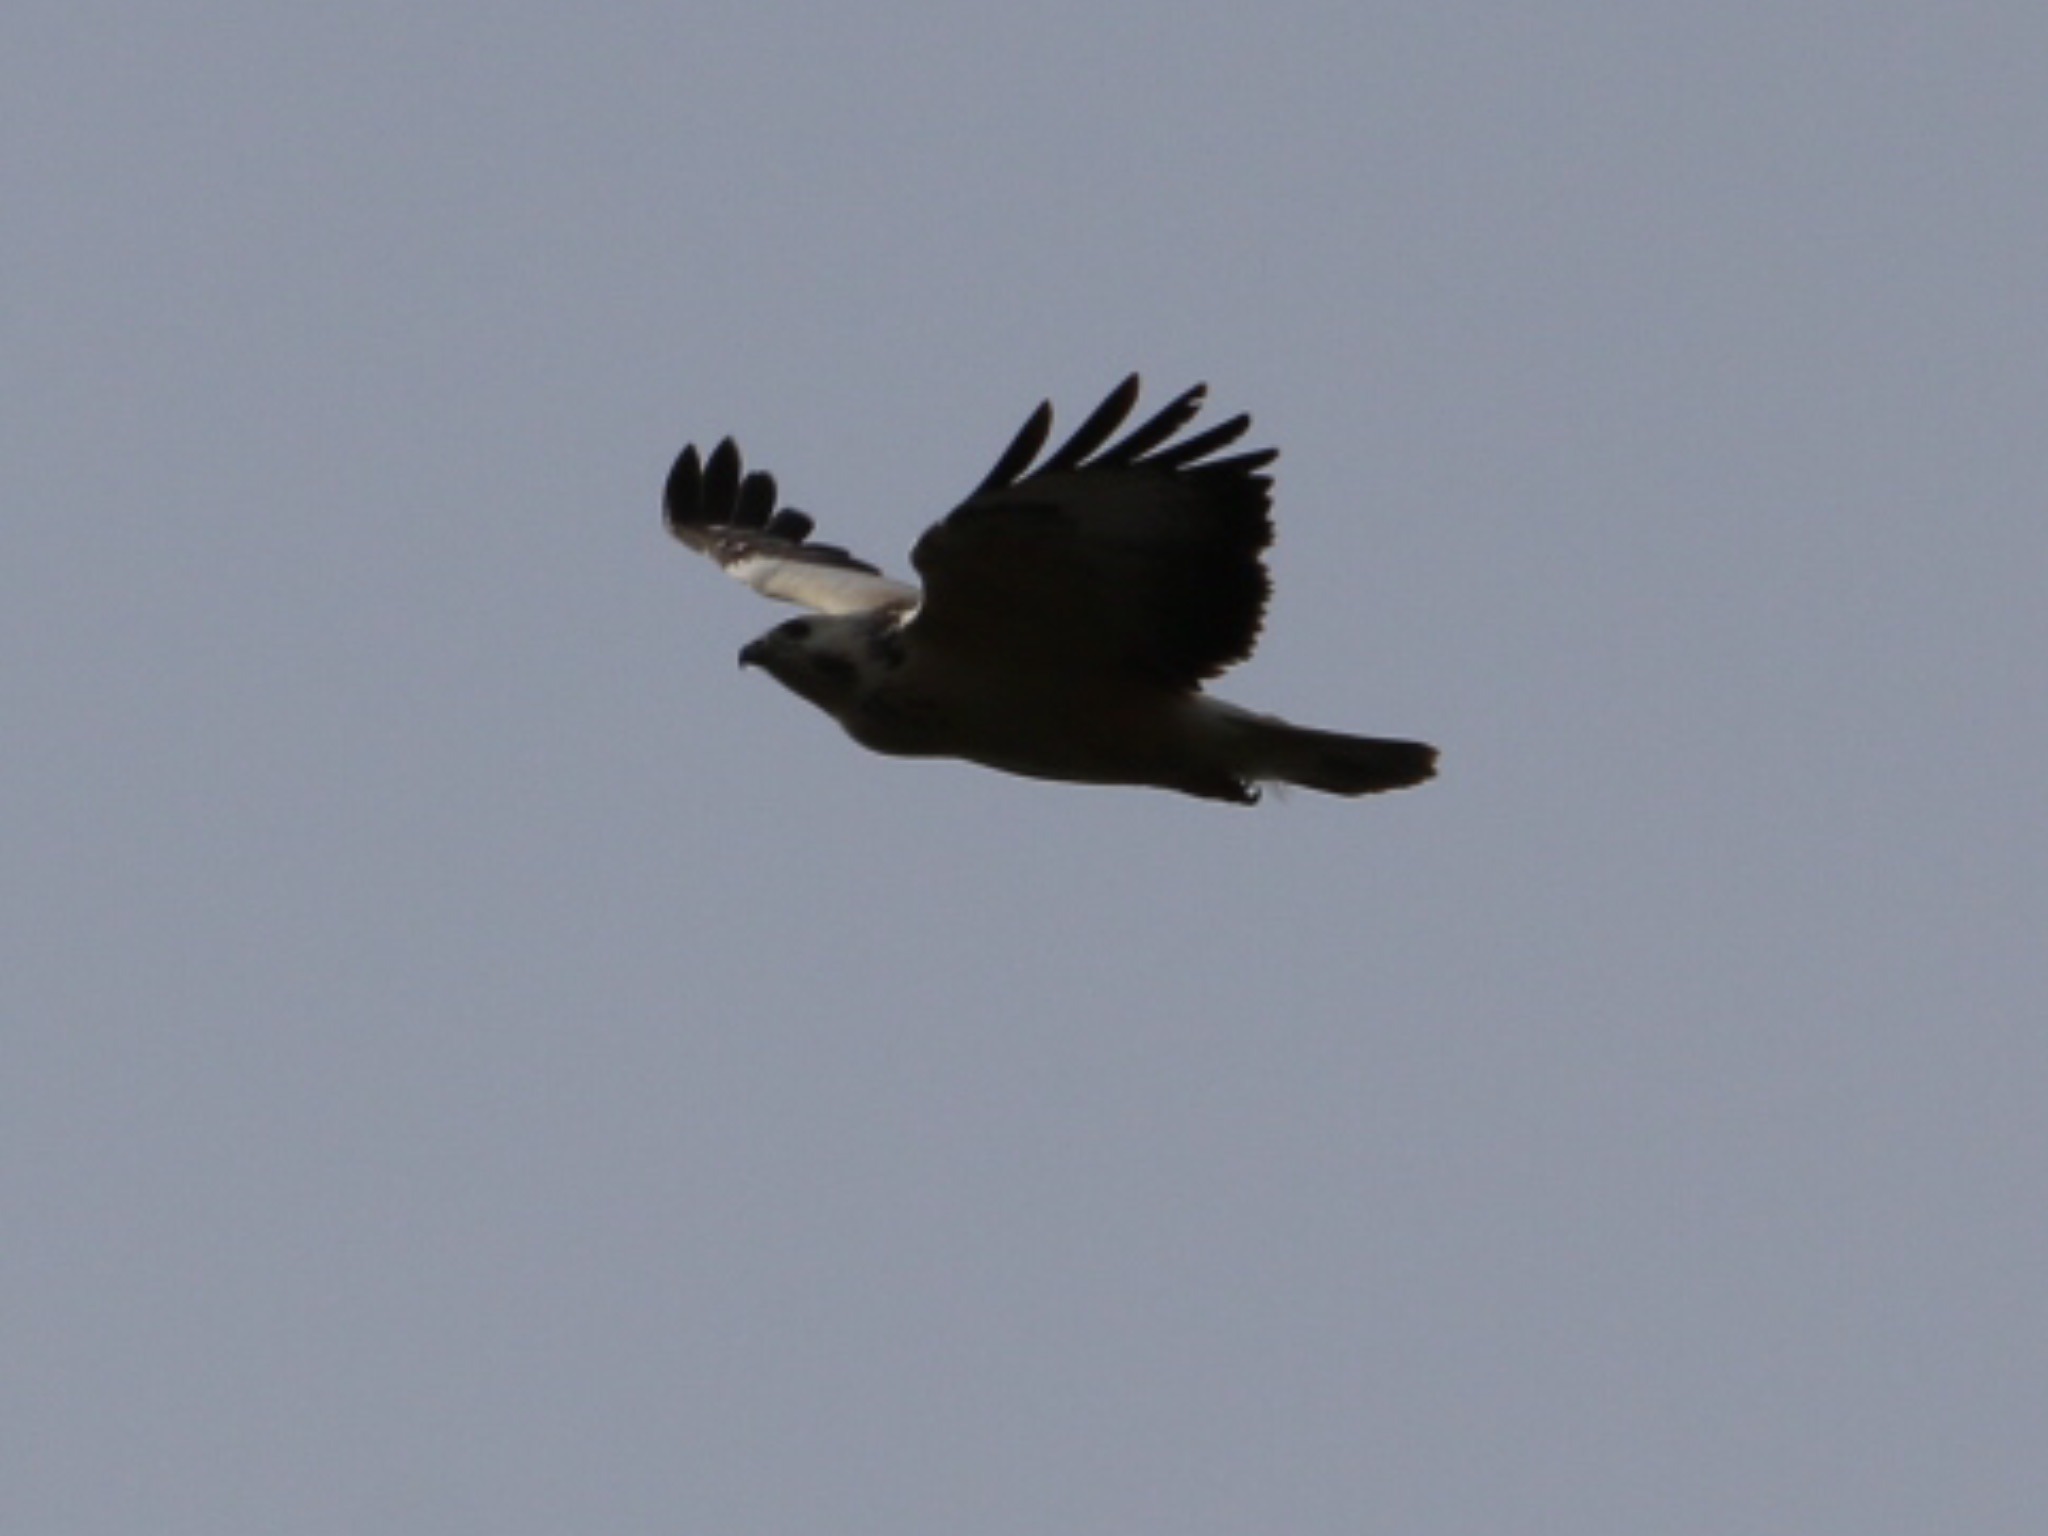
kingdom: Animalia
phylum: Chordata
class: Aves
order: Accipitriformes
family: Accipitridae
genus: Buteo
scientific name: Buteo buteo
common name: Musvåge
